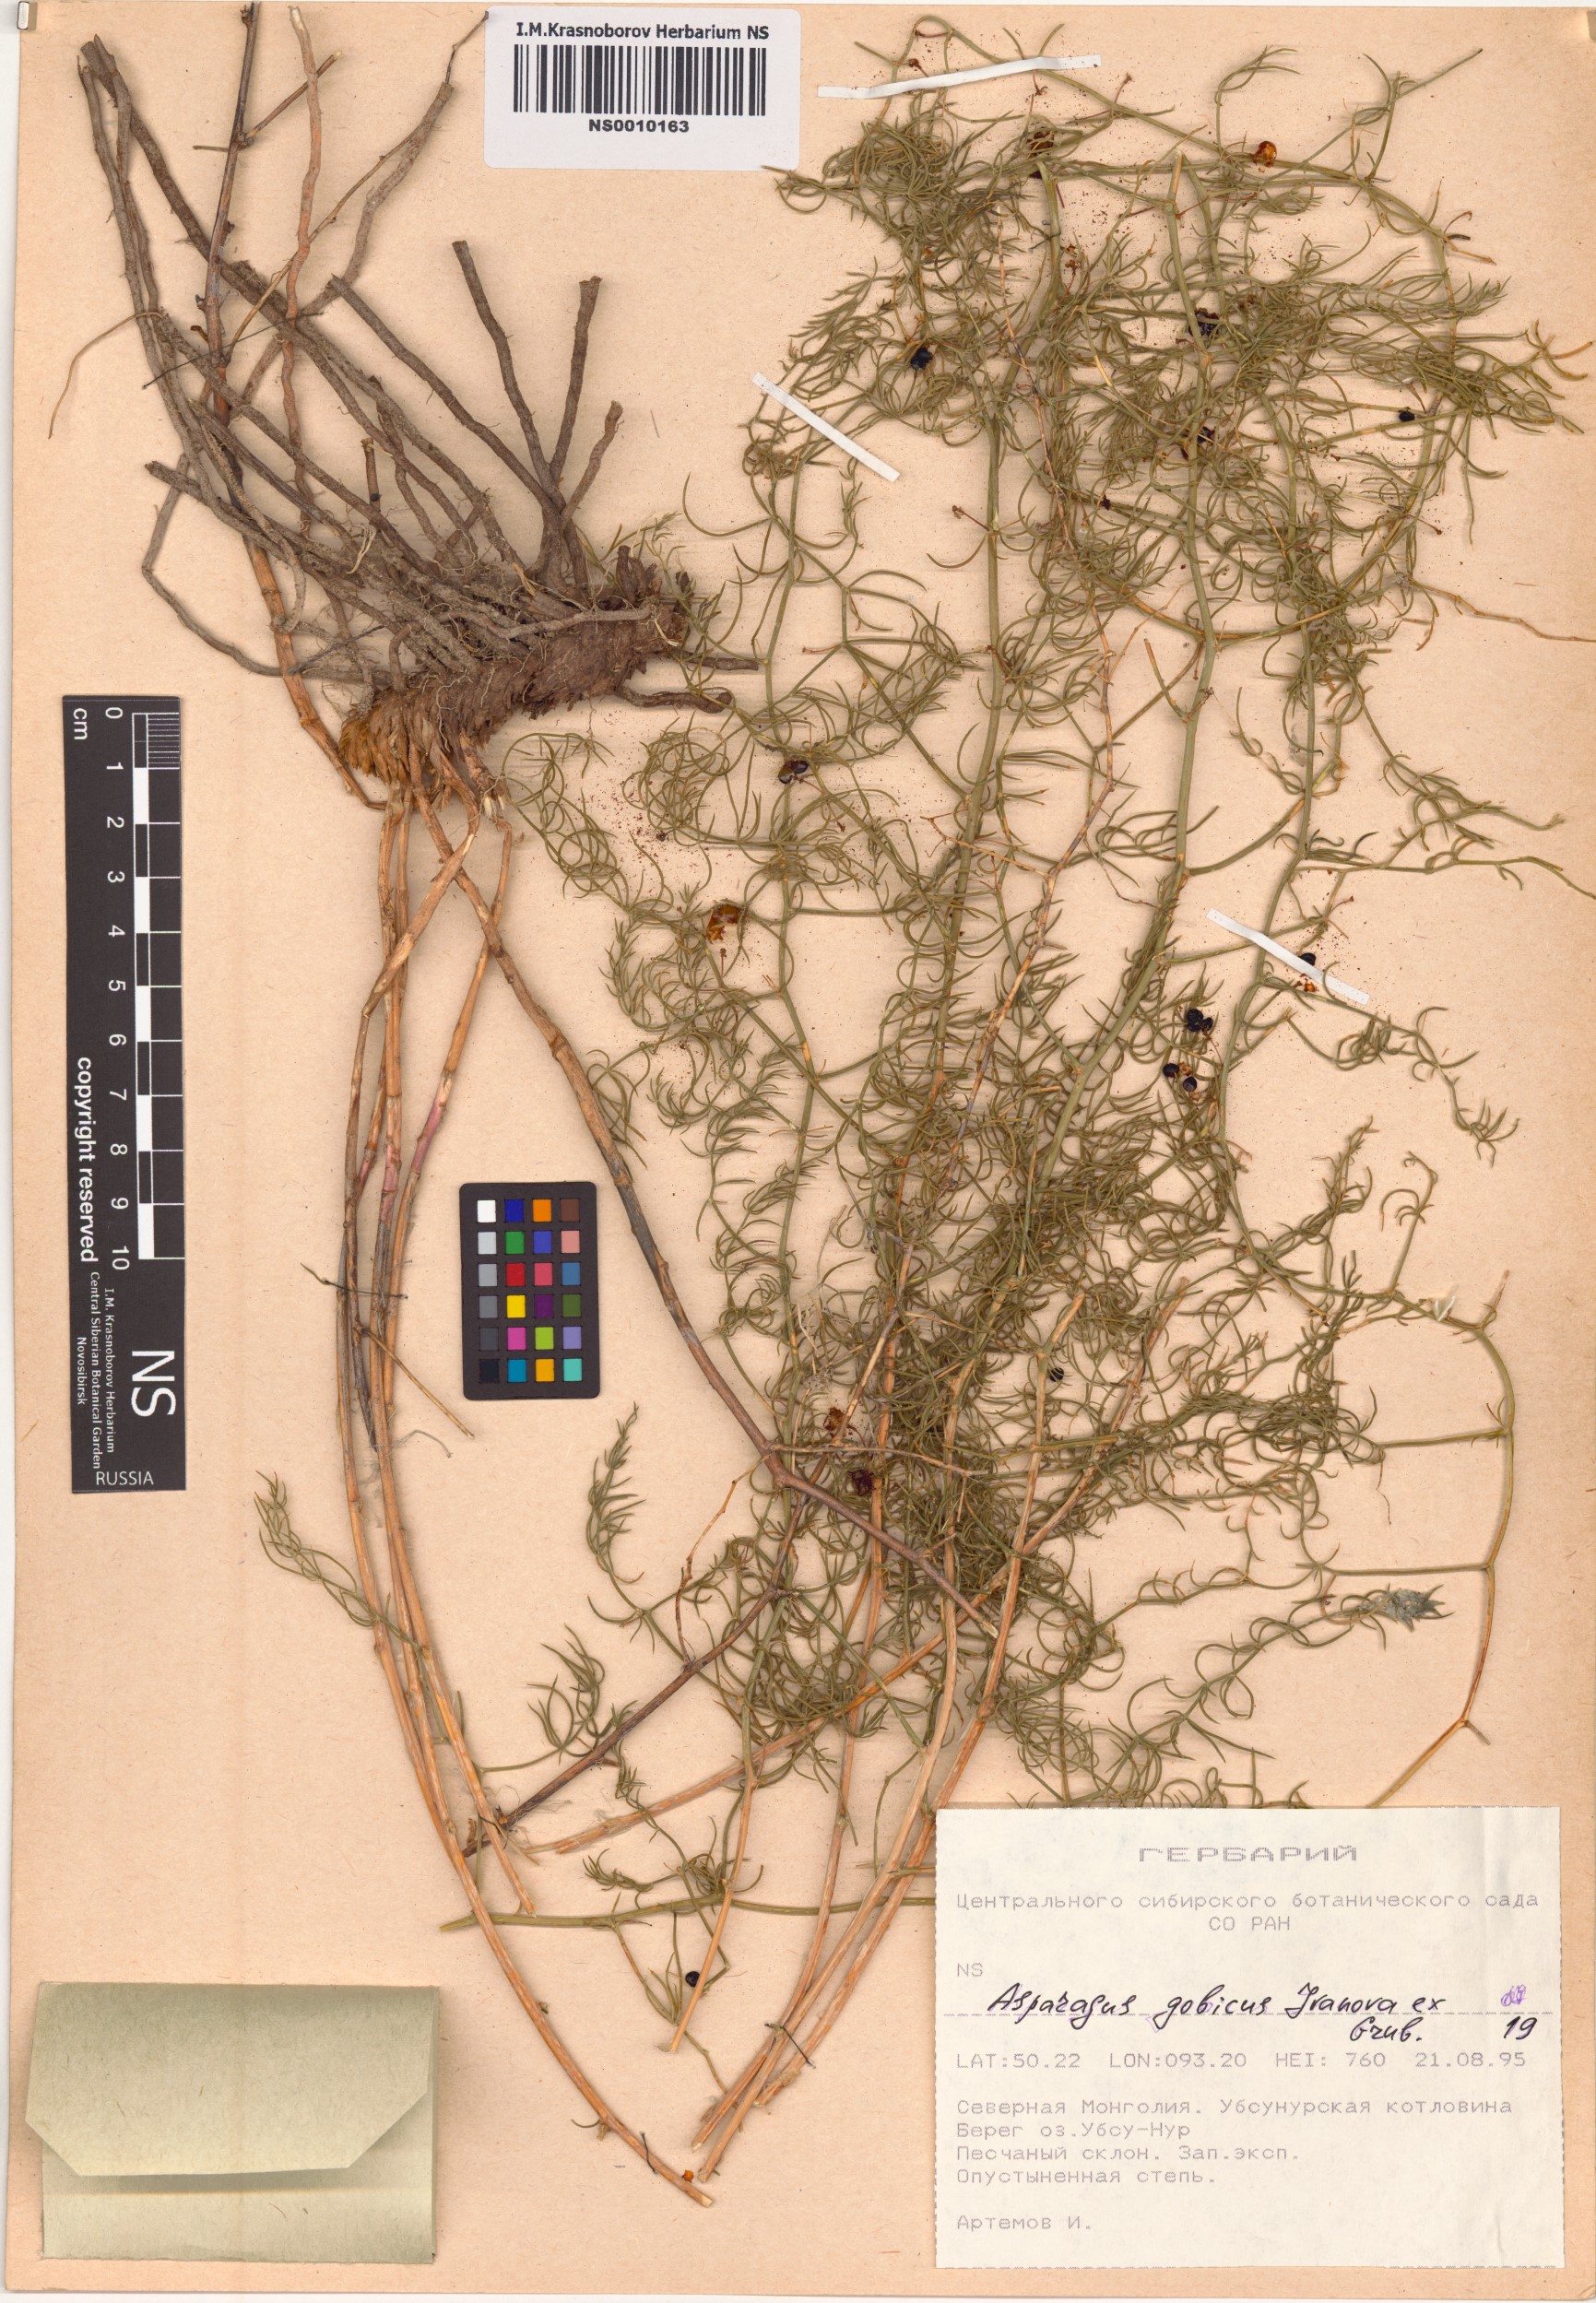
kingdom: Plantae
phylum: Tracheophyta
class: Liliopsida
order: Asparagales
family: Asparagaceae
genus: Asparagus
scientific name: Asparagus gobicus
